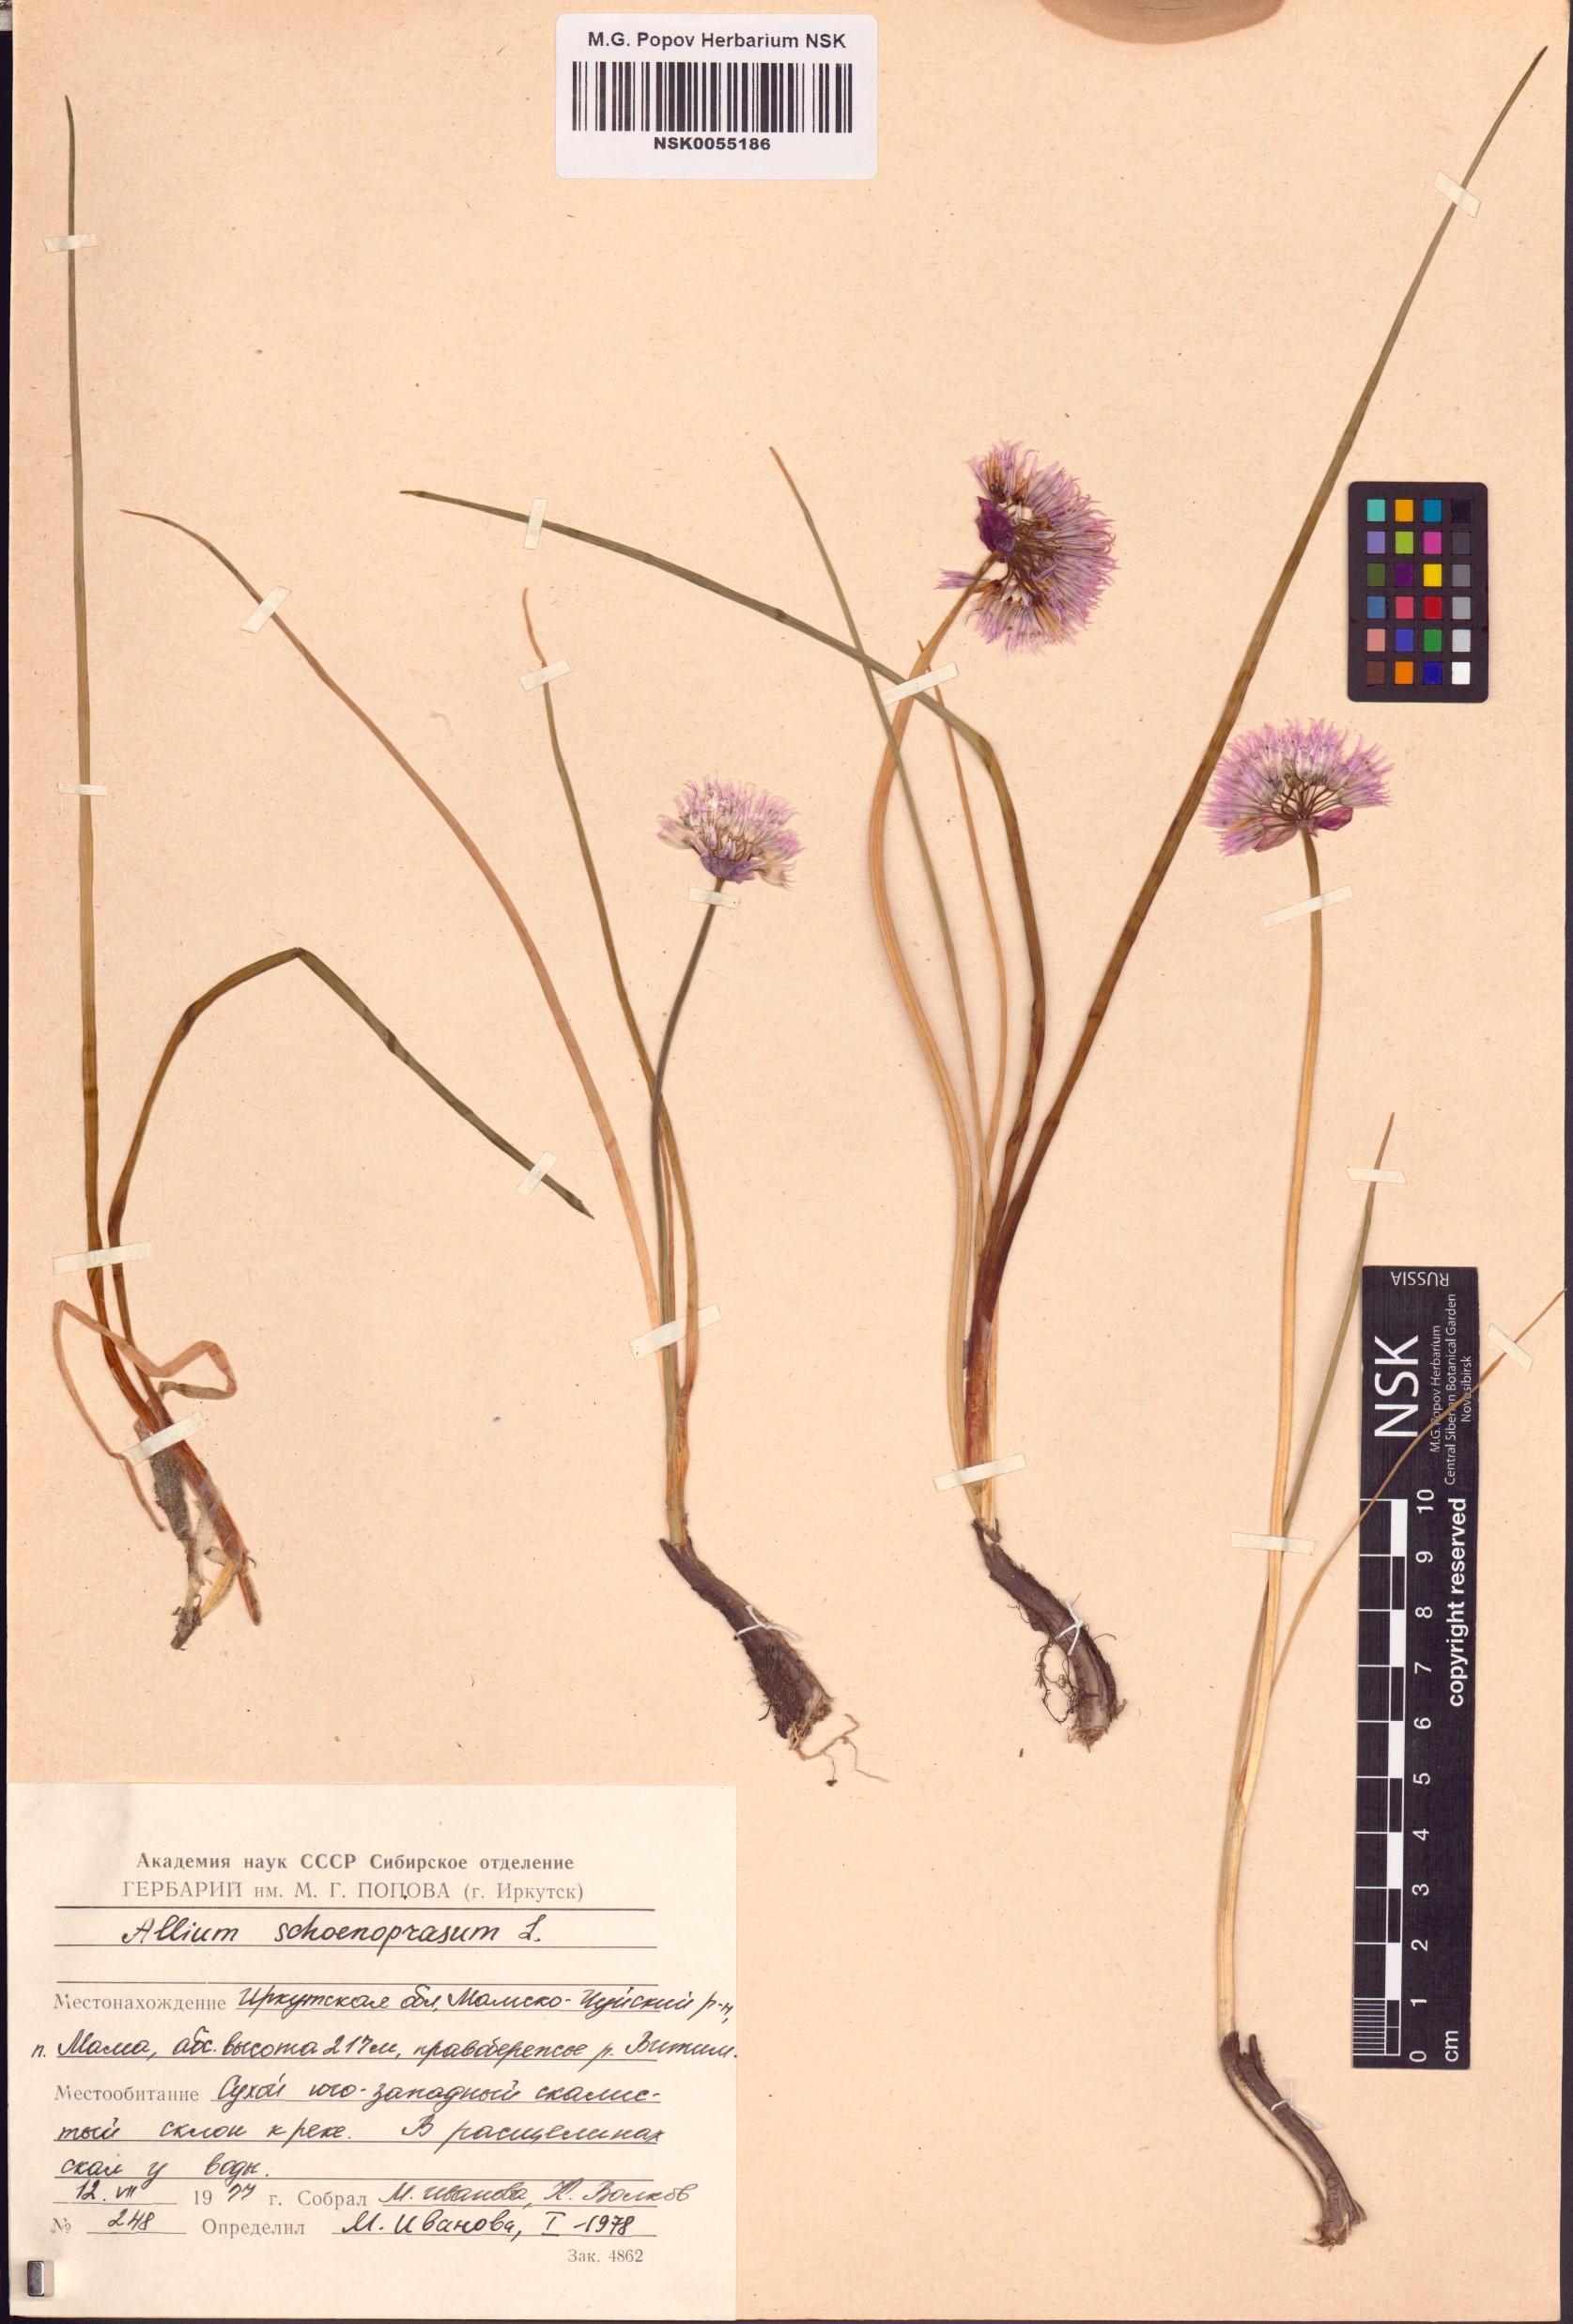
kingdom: Plantae
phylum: Tracheophyta
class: Liliopsida
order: Asparagales
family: Amaryllidaceae
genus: Allium
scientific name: Allium schoenoprasum
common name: Chives
